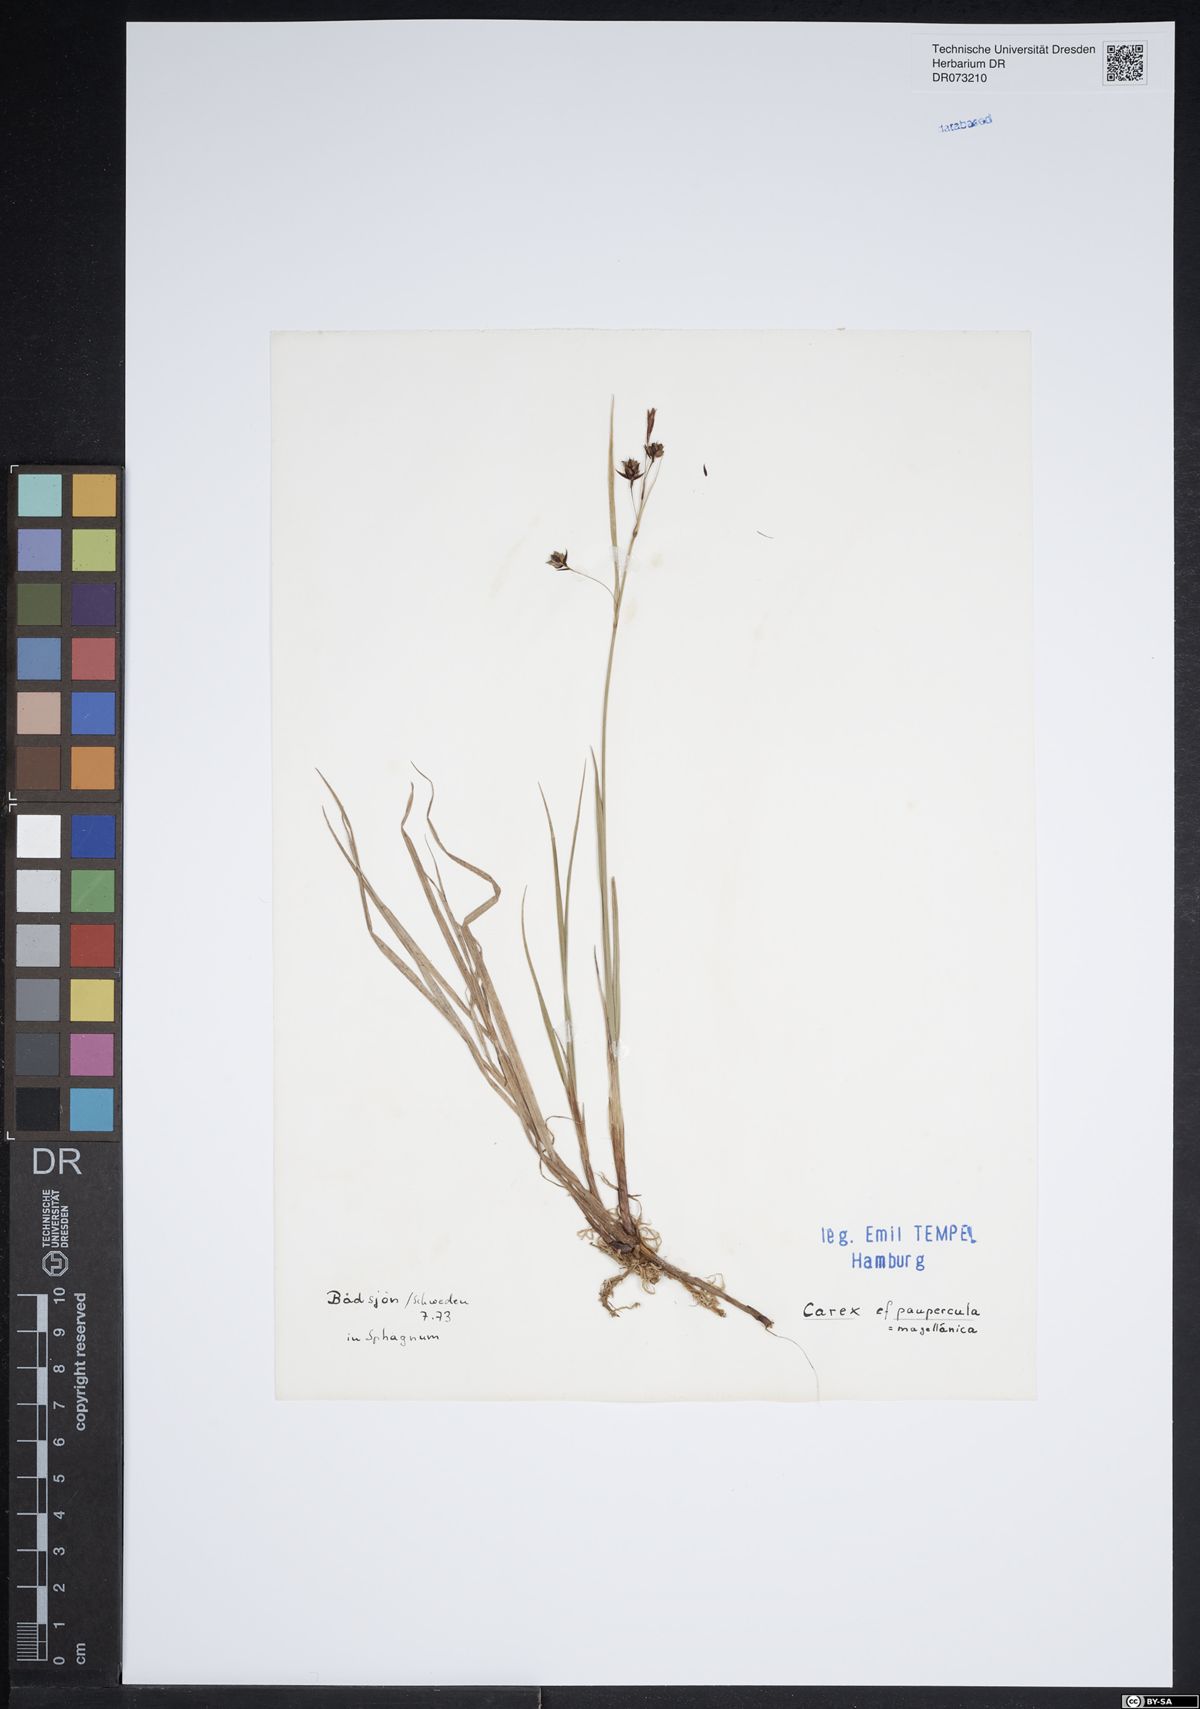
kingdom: Plantae
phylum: Tracheophyta
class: Liliopsida
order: Poales
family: Cyperaceae
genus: Carex
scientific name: Carex magellanica
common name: Bog sedge
